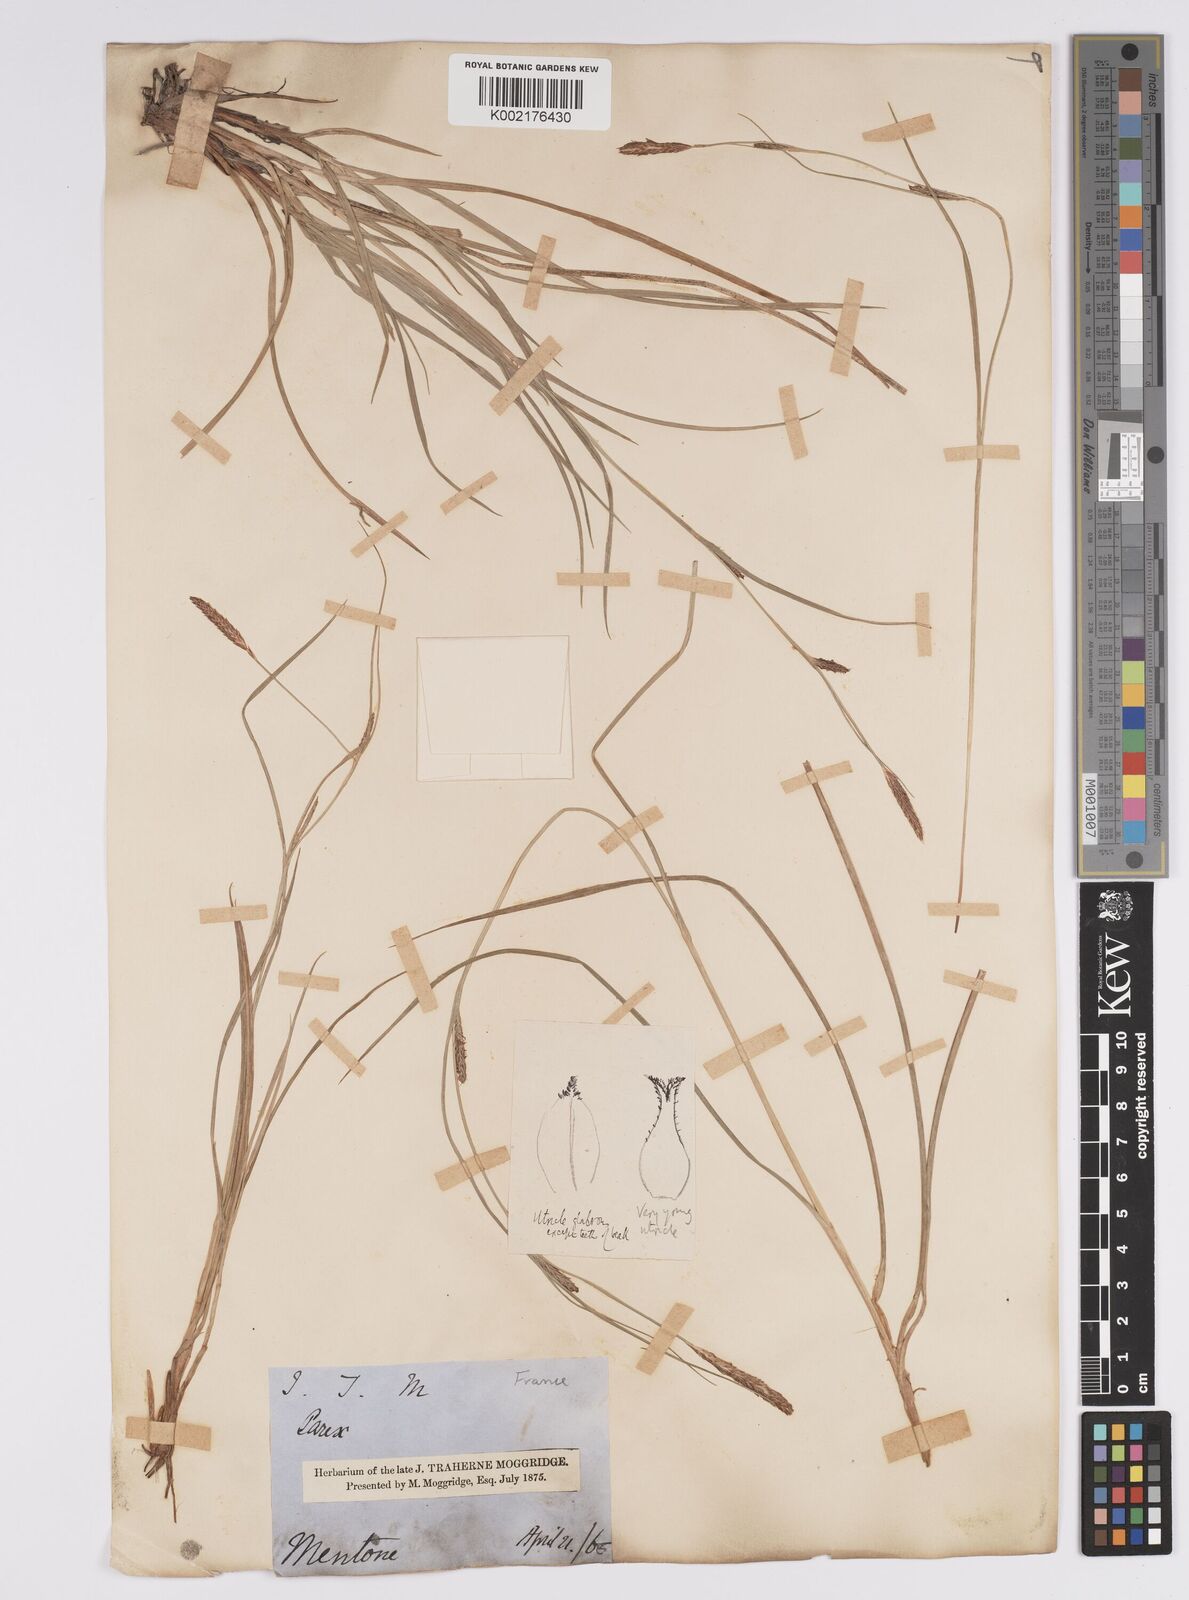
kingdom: Plantae
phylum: Tracheophyta
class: Liliopsida
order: Poales
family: Cyperaceae
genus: Carex
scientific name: Carex distans
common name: Distant sedge
